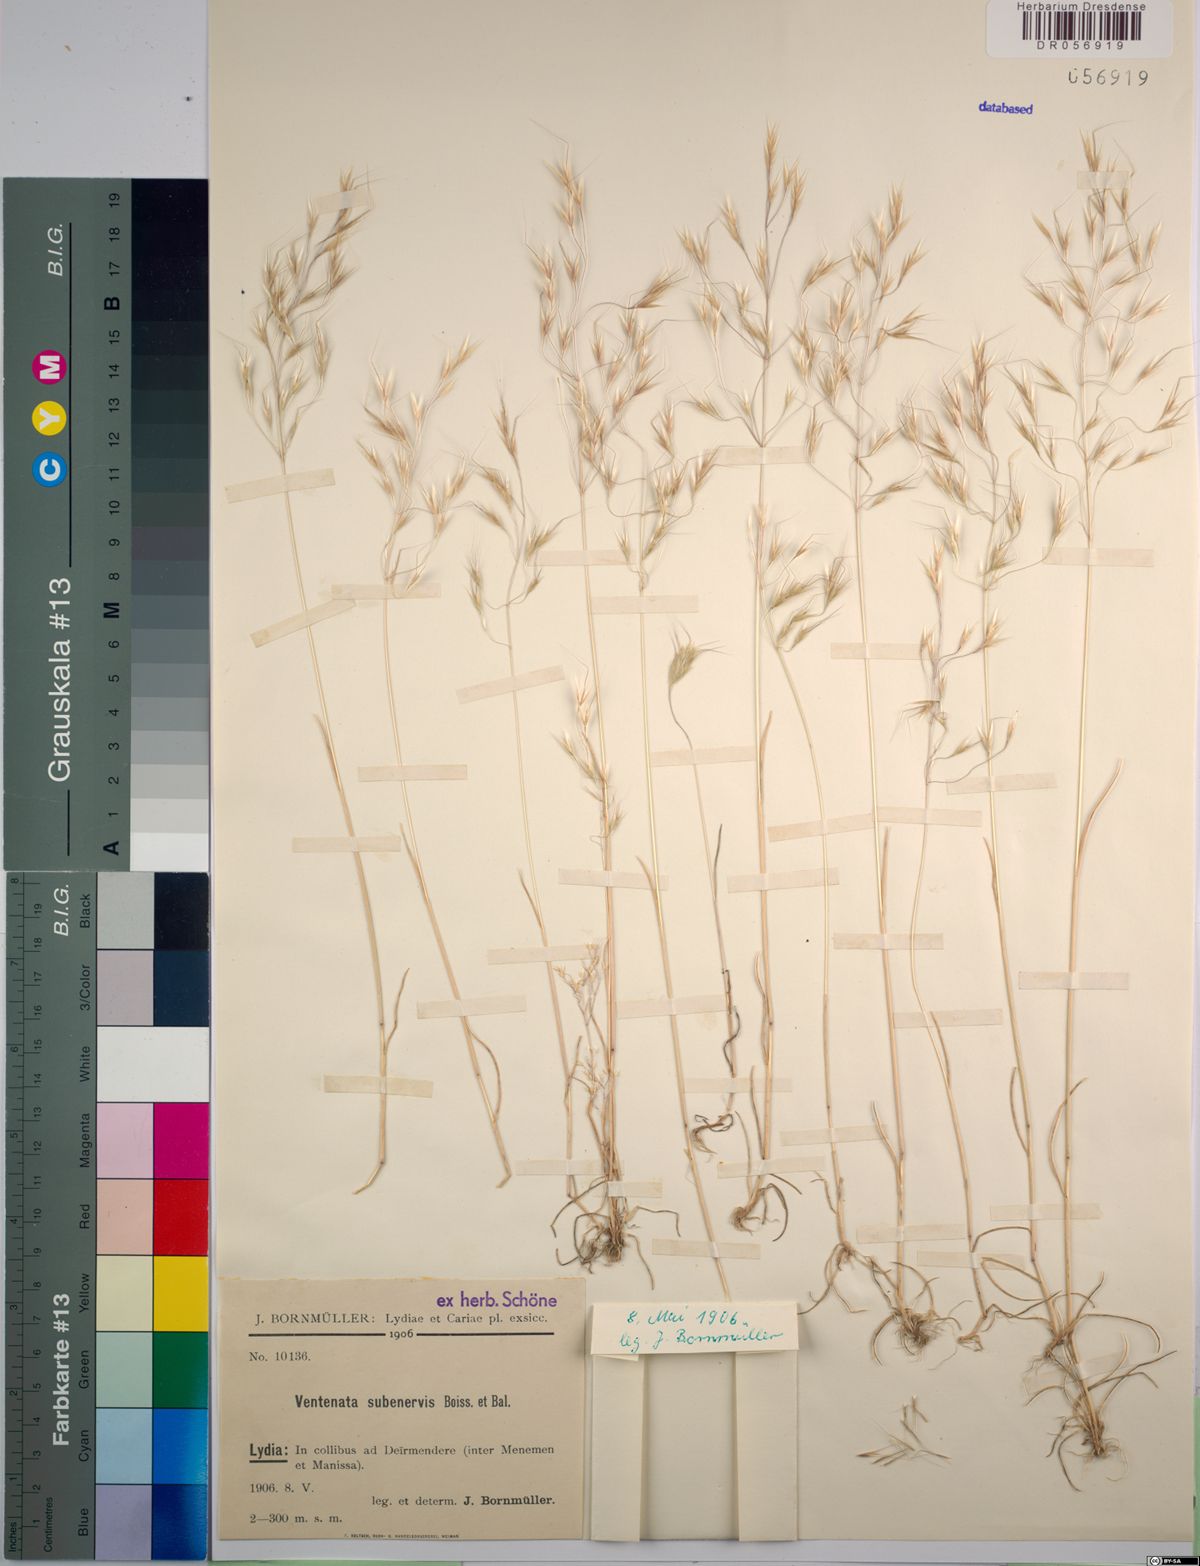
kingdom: Plantae
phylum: Tracheophyta
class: Liliopsida
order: Poales
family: Poaceae
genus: Ventenata
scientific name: Ventenata subenervis
